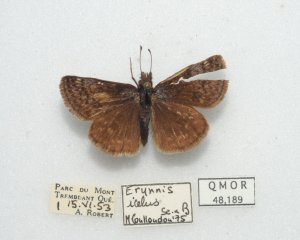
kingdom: Animalia
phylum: Arthropoda
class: Insecta
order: Lepidoptera
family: Hesperiidae
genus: Erynnis
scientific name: Erynnis icelus
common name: Dreamy Duskywing
